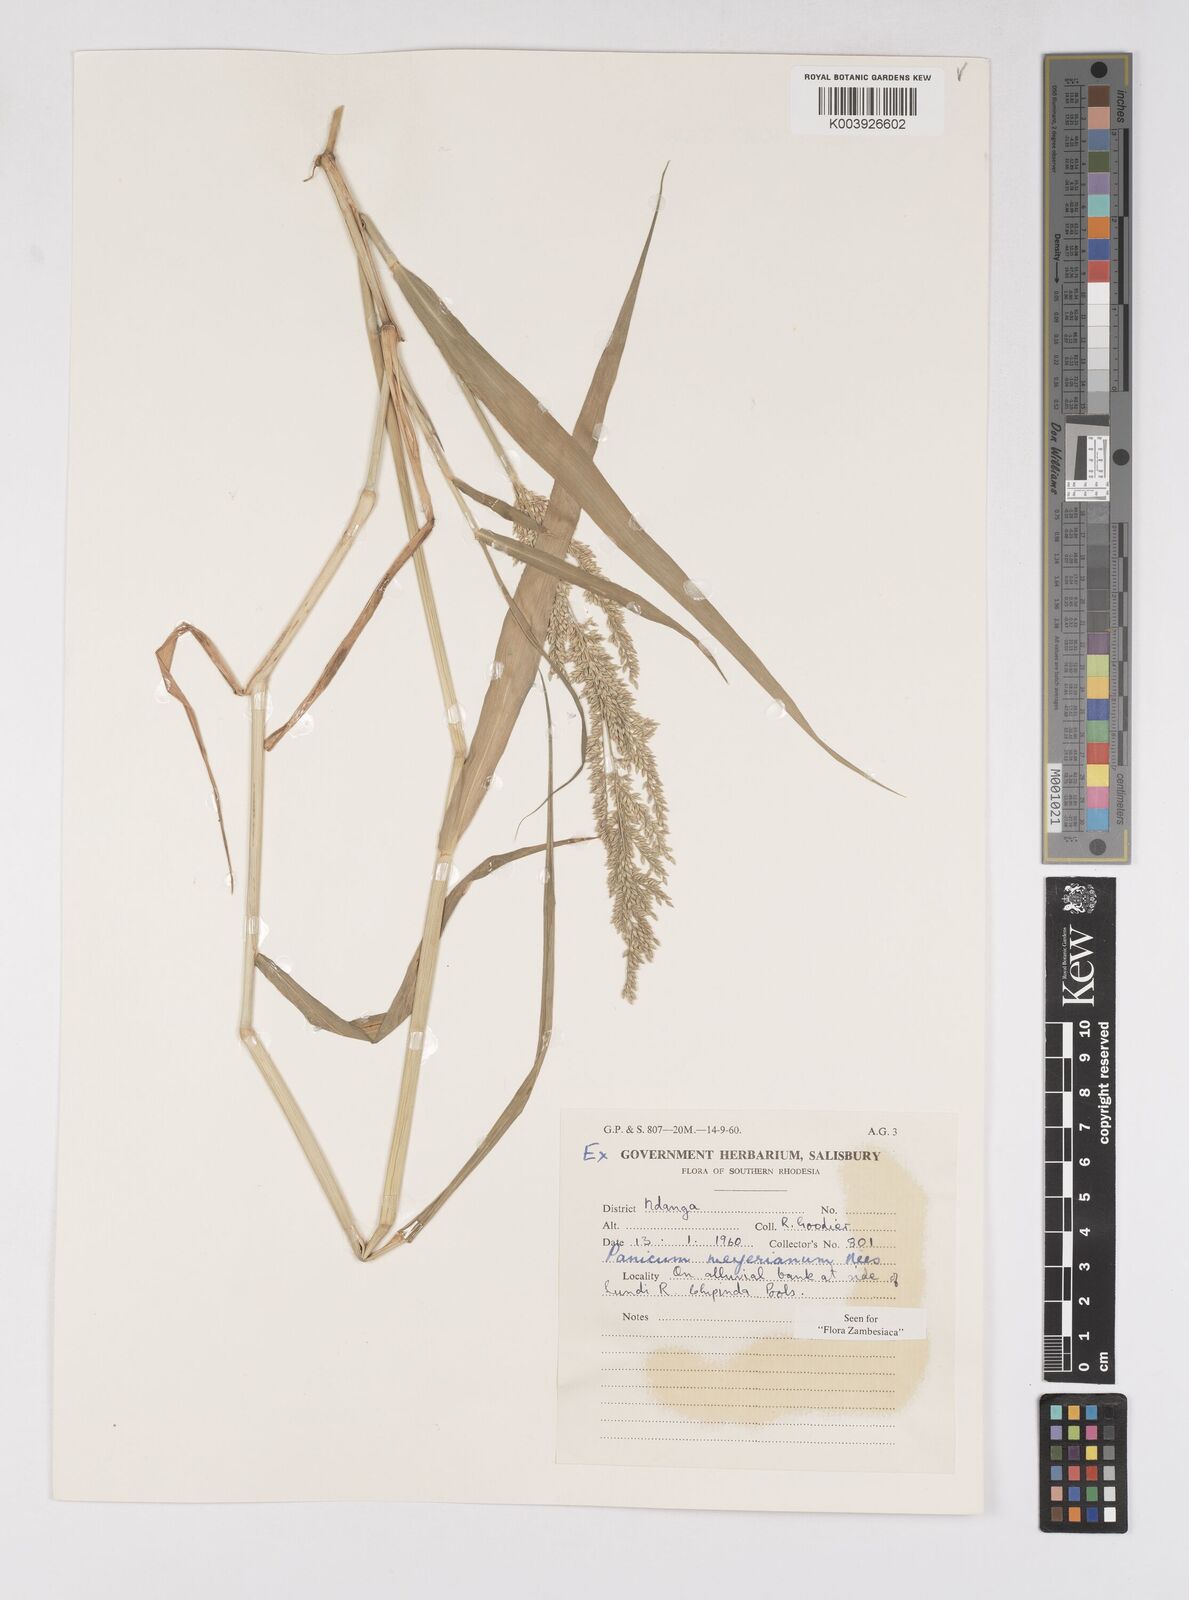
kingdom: Plantae
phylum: Tracheophyta
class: Liliopsida
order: Poales
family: Poaceae
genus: Eriochloa
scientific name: Eriochloa meyeriana
